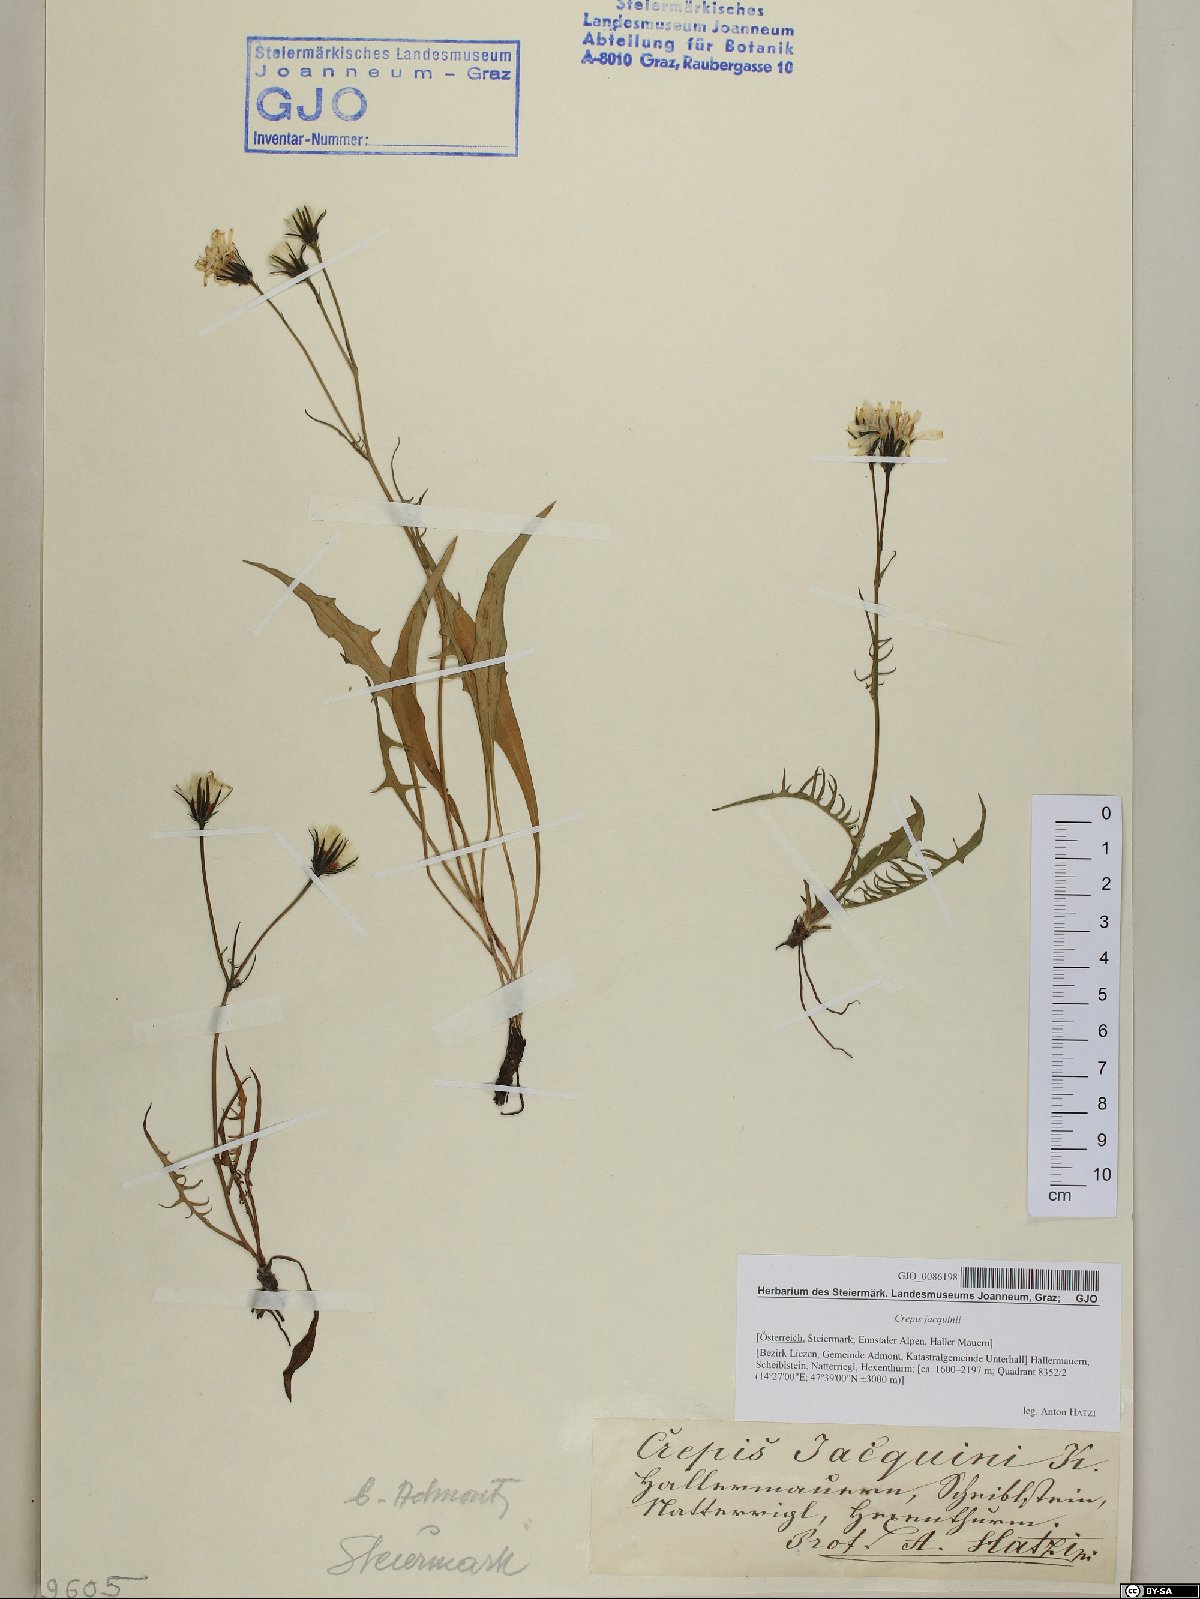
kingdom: Plantae
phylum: Tracheophyta
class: Magnoliopsida
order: Asterales
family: Asteraceae
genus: Crepis
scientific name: Crepis jacquinii
